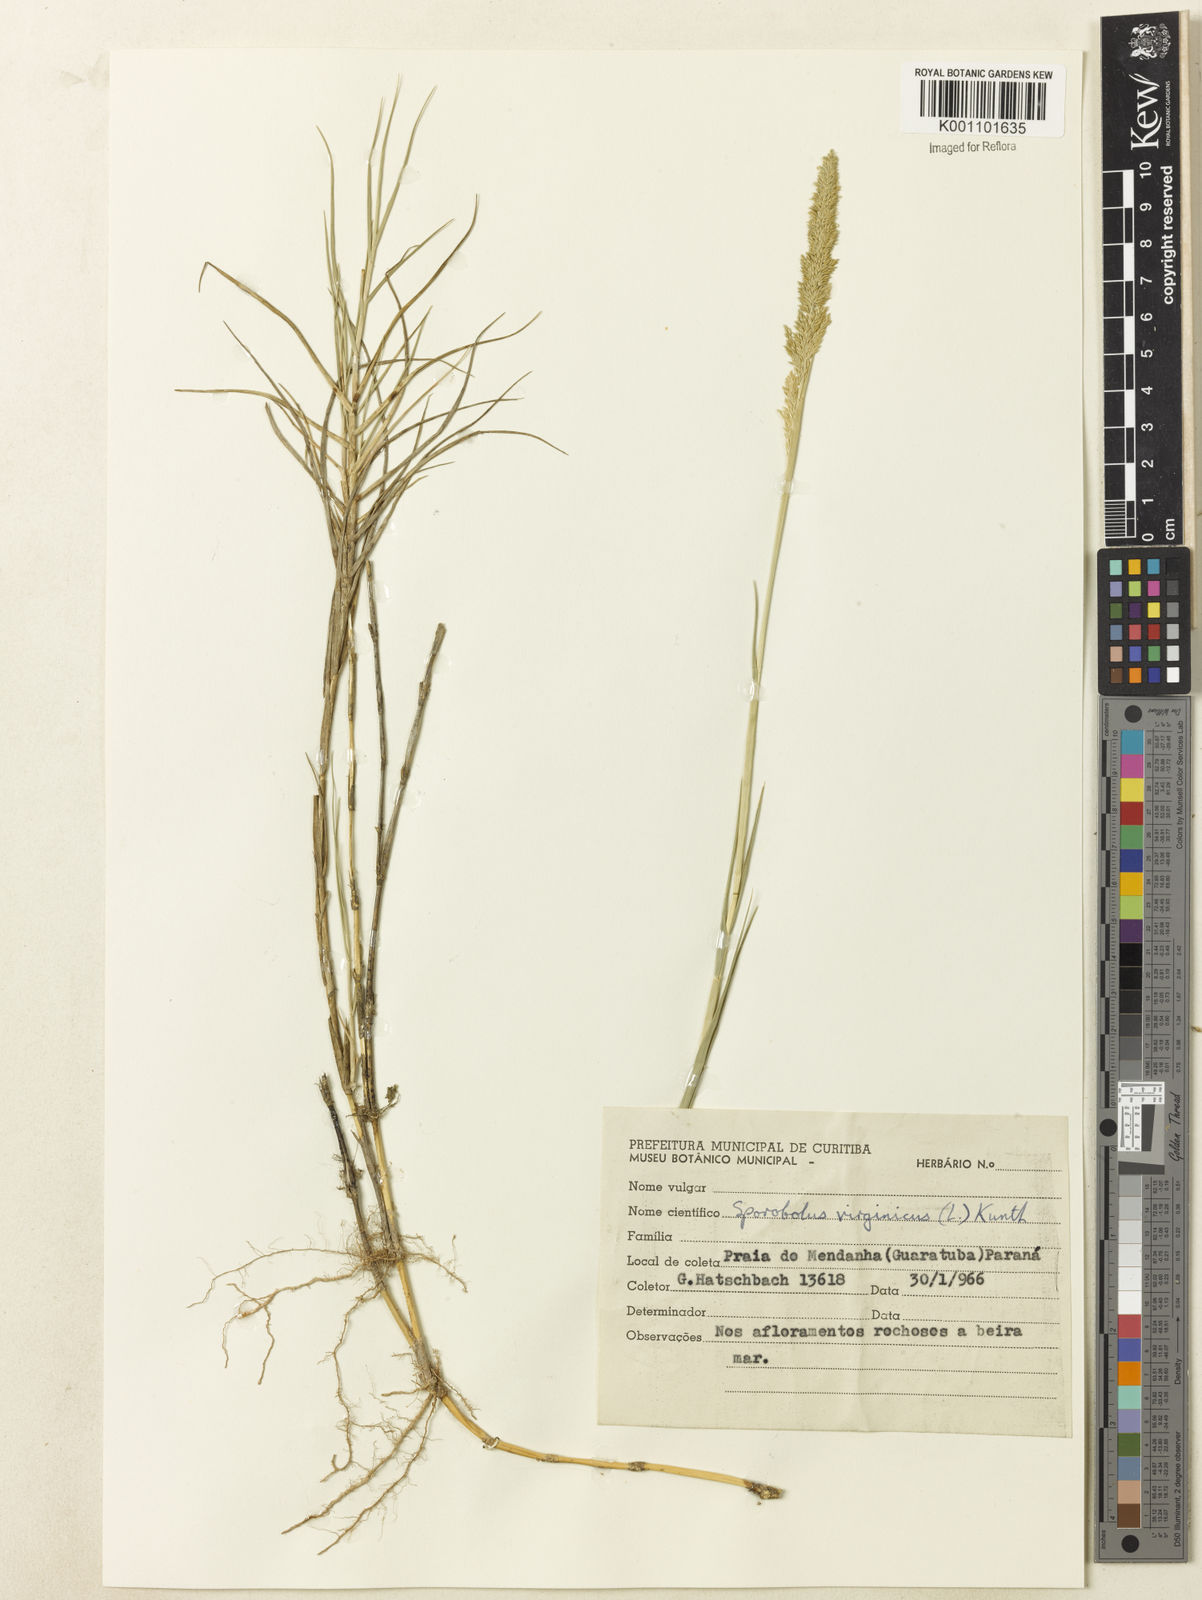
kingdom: Plantae
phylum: Tracheophyta
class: Liliopsida
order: Poales
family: Poaceae
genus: Sporobolus
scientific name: Sporobolus virginicus
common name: Beach dropseed
